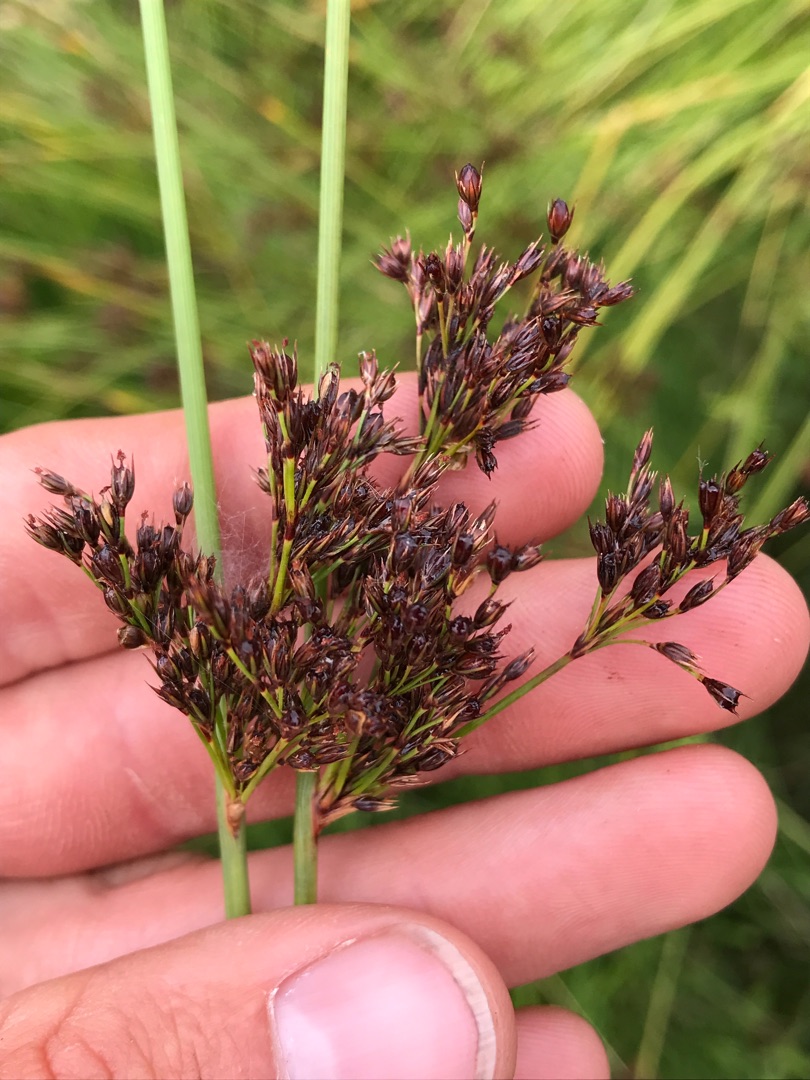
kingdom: Plantae
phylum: Tracheophyta
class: Liliopsida
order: Poales
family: Juncaceae
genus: Juncus
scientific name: Juncus inflexus
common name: Blågrå siv
